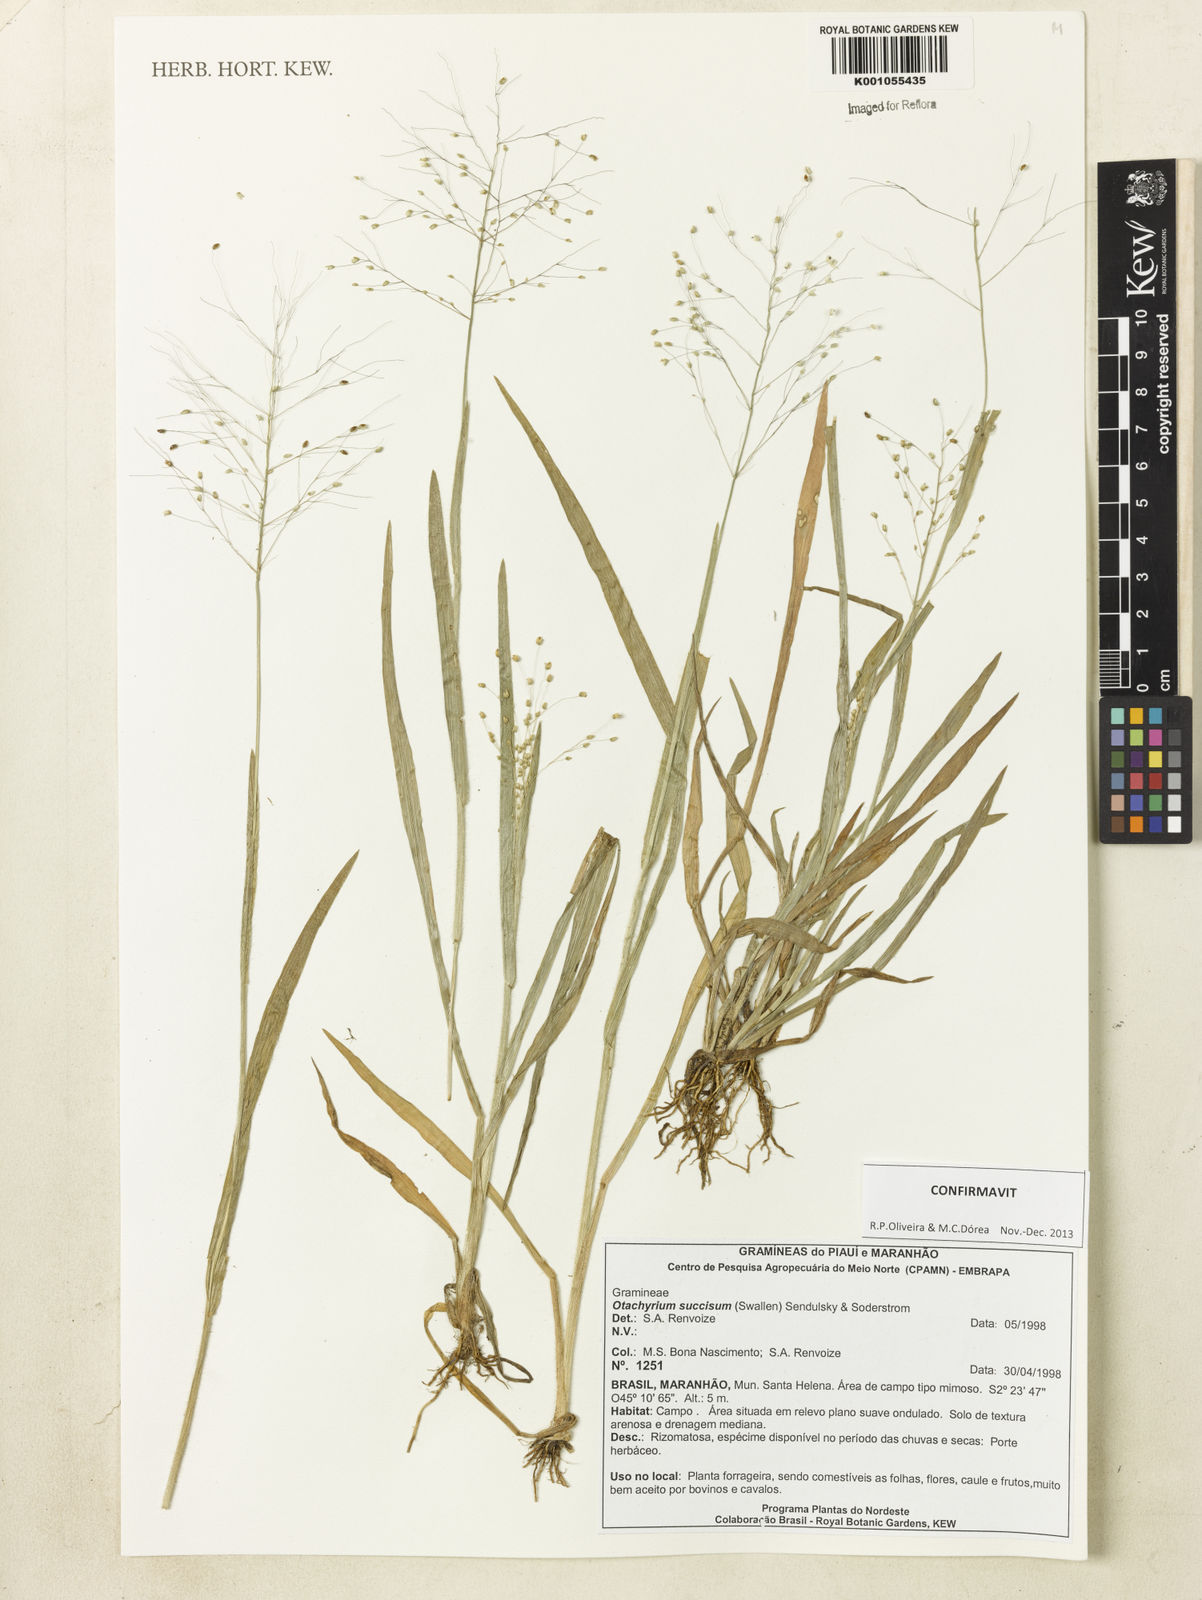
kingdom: Plantae
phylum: Tracheophyta
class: Liliopsida
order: Poales
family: Poaceae
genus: Otachyrium
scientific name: Otachyrium inaequale
